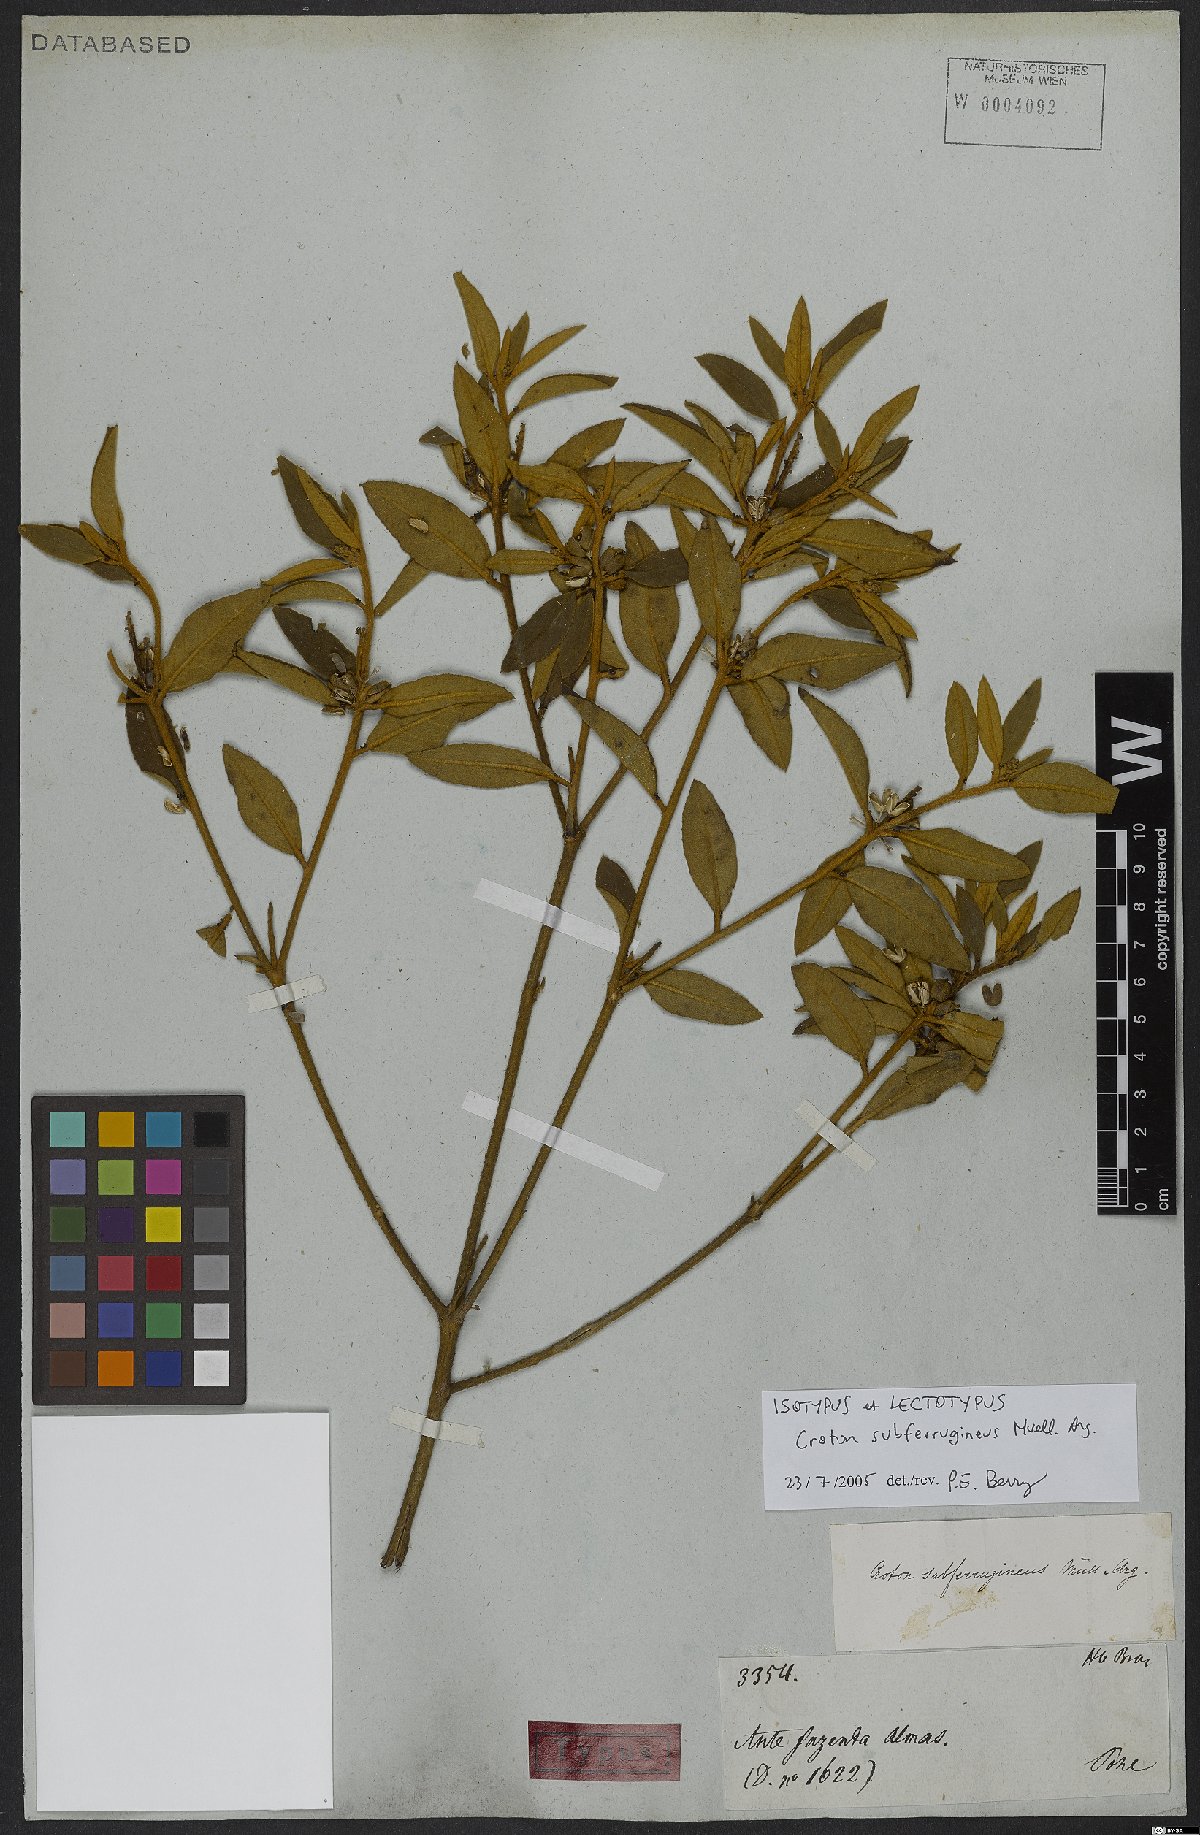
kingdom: Plantae
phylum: Tracheophyta
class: Magnoliopsida
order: Malpighiales
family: Euphorbiaceae
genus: Croton
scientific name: Croton subferrugineus
